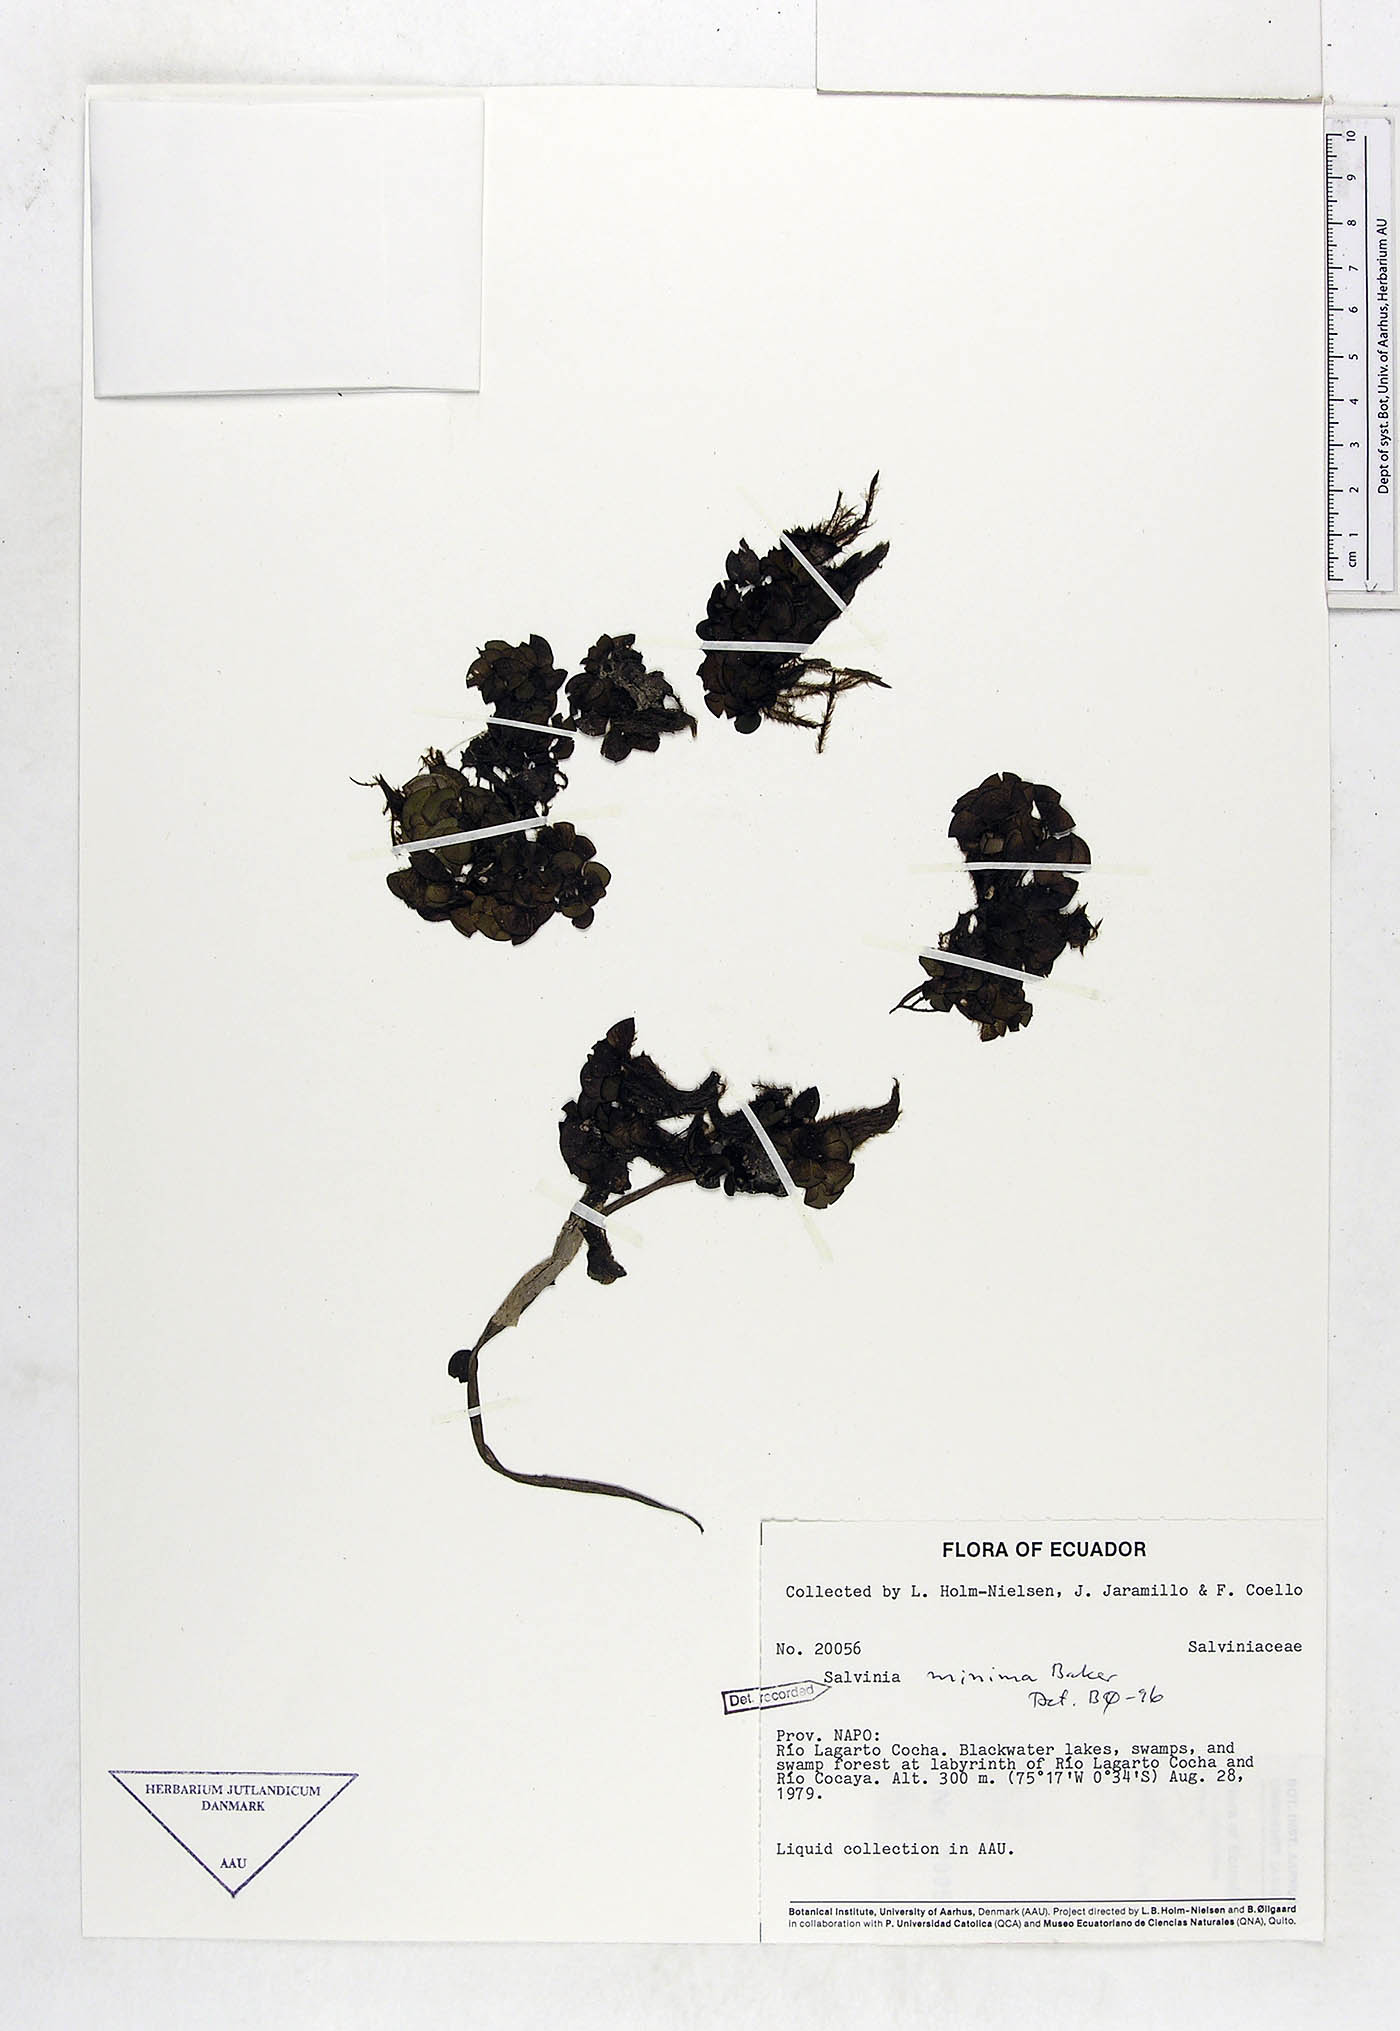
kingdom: Plantae
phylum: Tracheophyta
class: Polypodiopsida
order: Salviniales
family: Salviniaceae
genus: Salvinia
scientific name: Salvinia minima
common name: Water spangles
